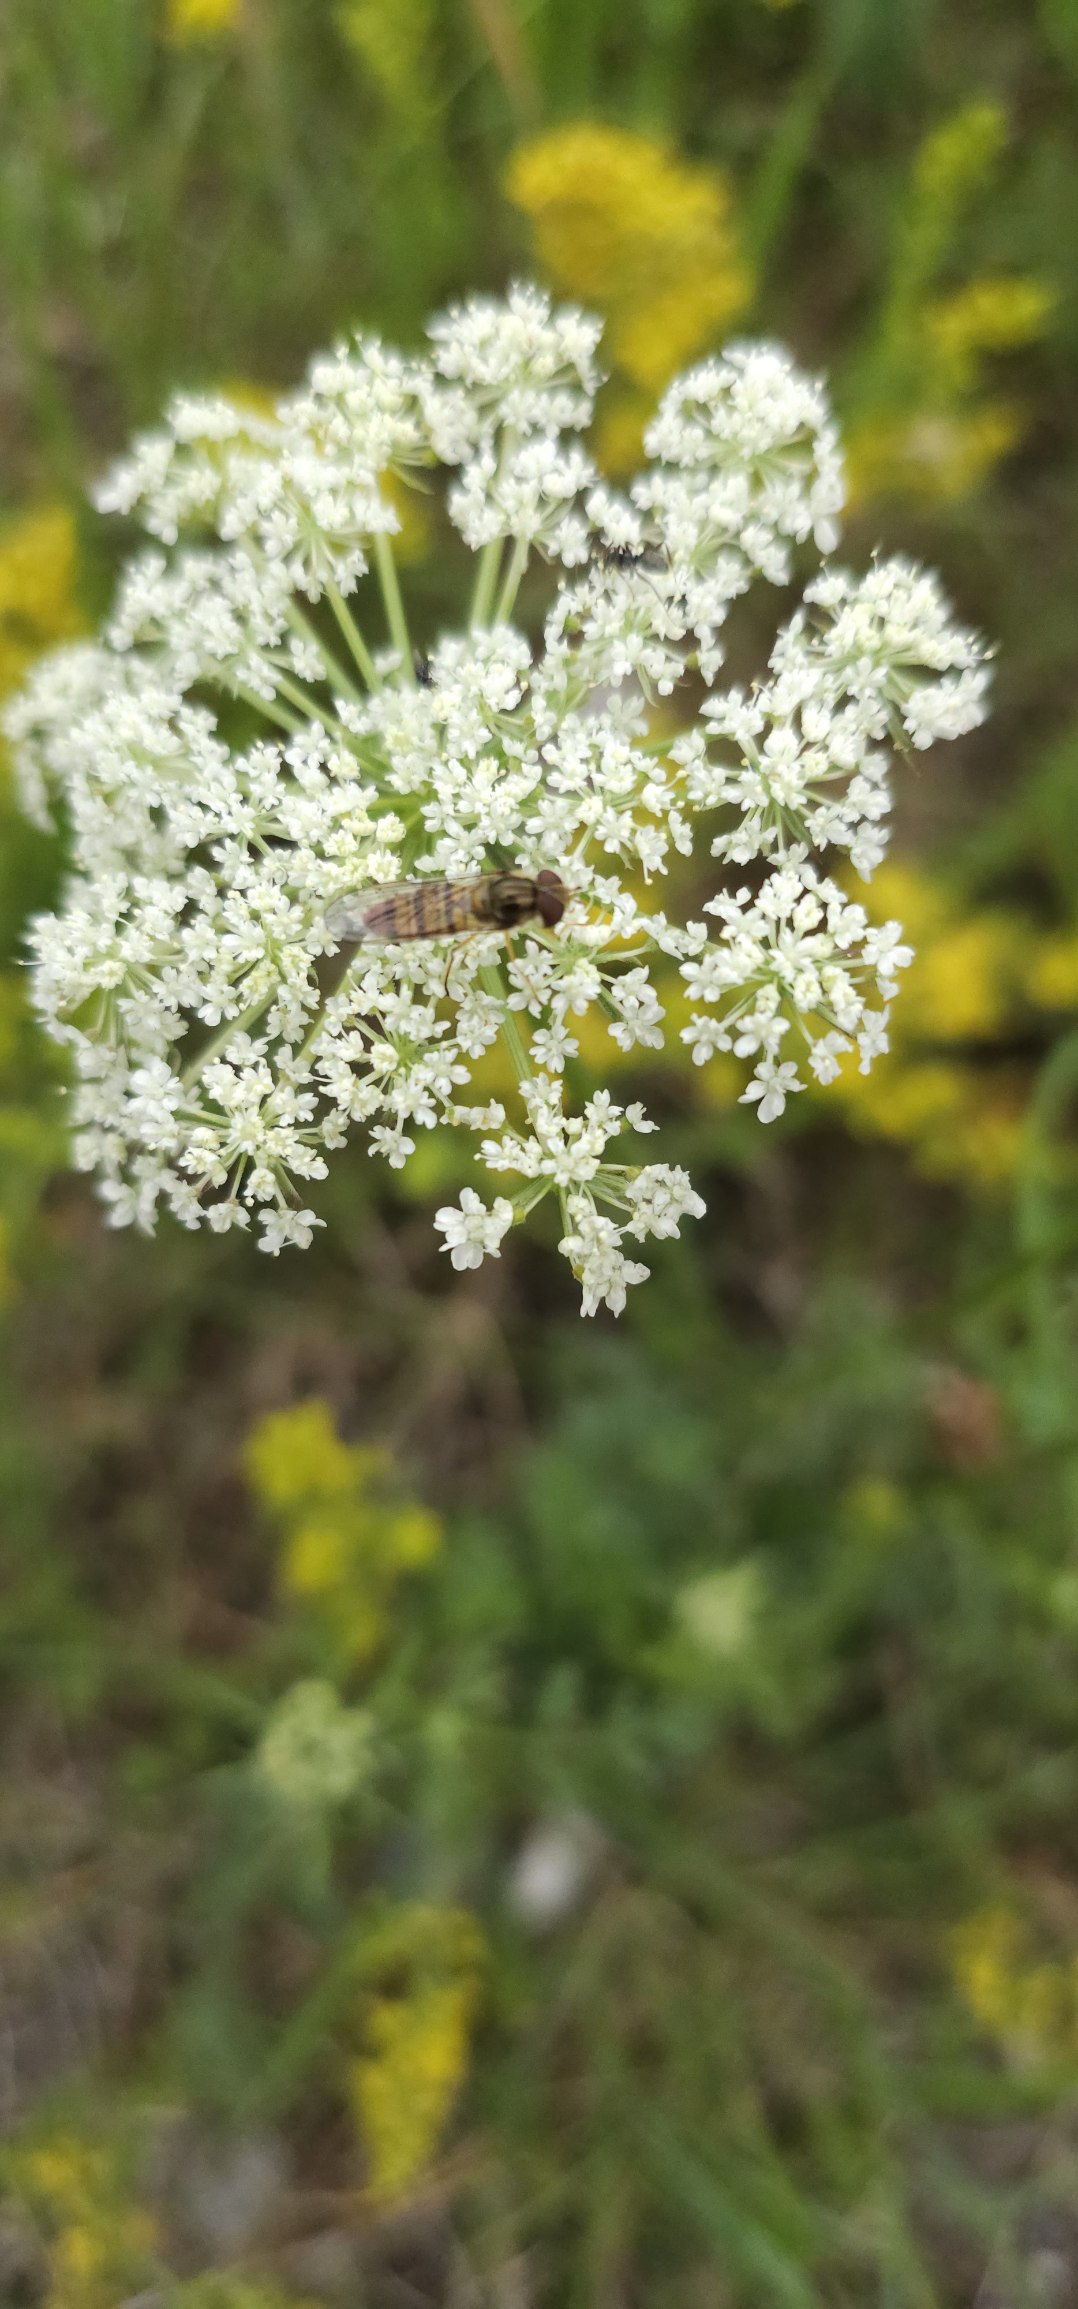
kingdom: Animalia
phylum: Arthropoda
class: Insecta
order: Diptera
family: Syrphidae
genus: Episyrphus
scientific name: Episyrphus balteatus
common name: Dobbeltbåndet svirreflue
